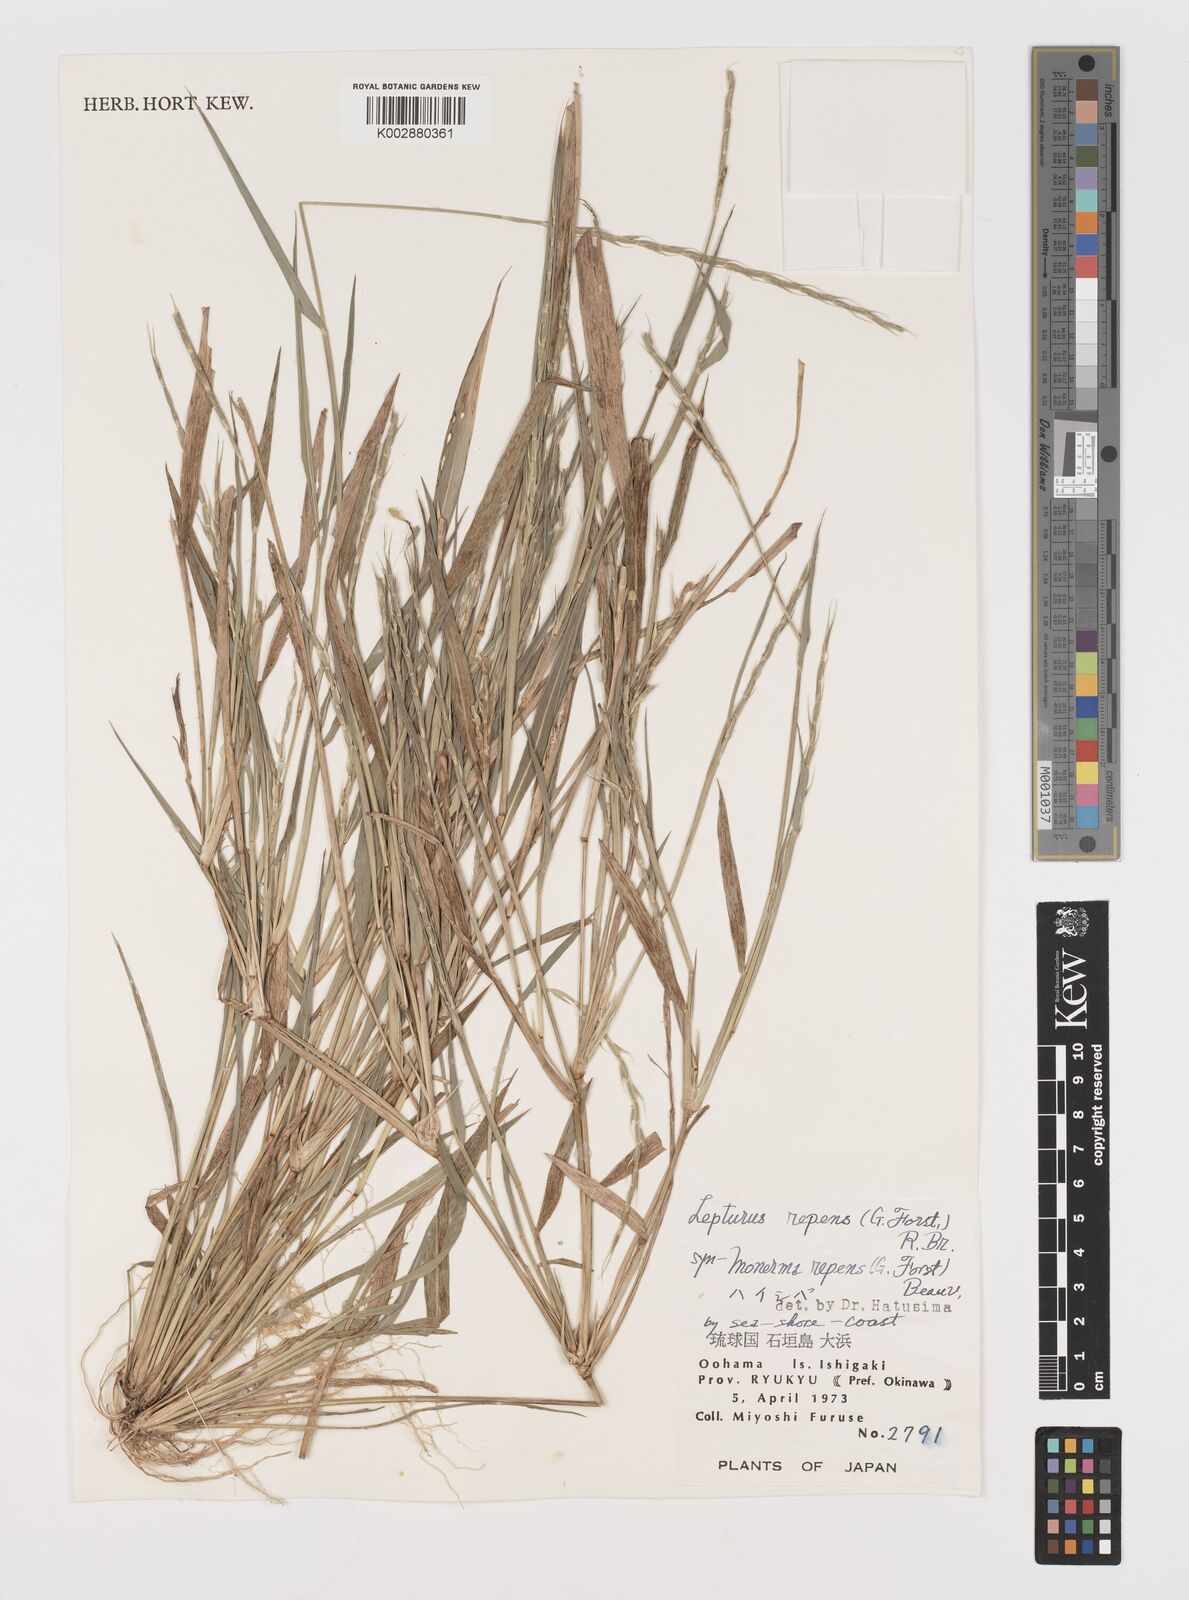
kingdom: Plantae
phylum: Tracheophyta
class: Liliopsida
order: Poales
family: Poaceae
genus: Lepturus
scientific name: Lepturus repens
